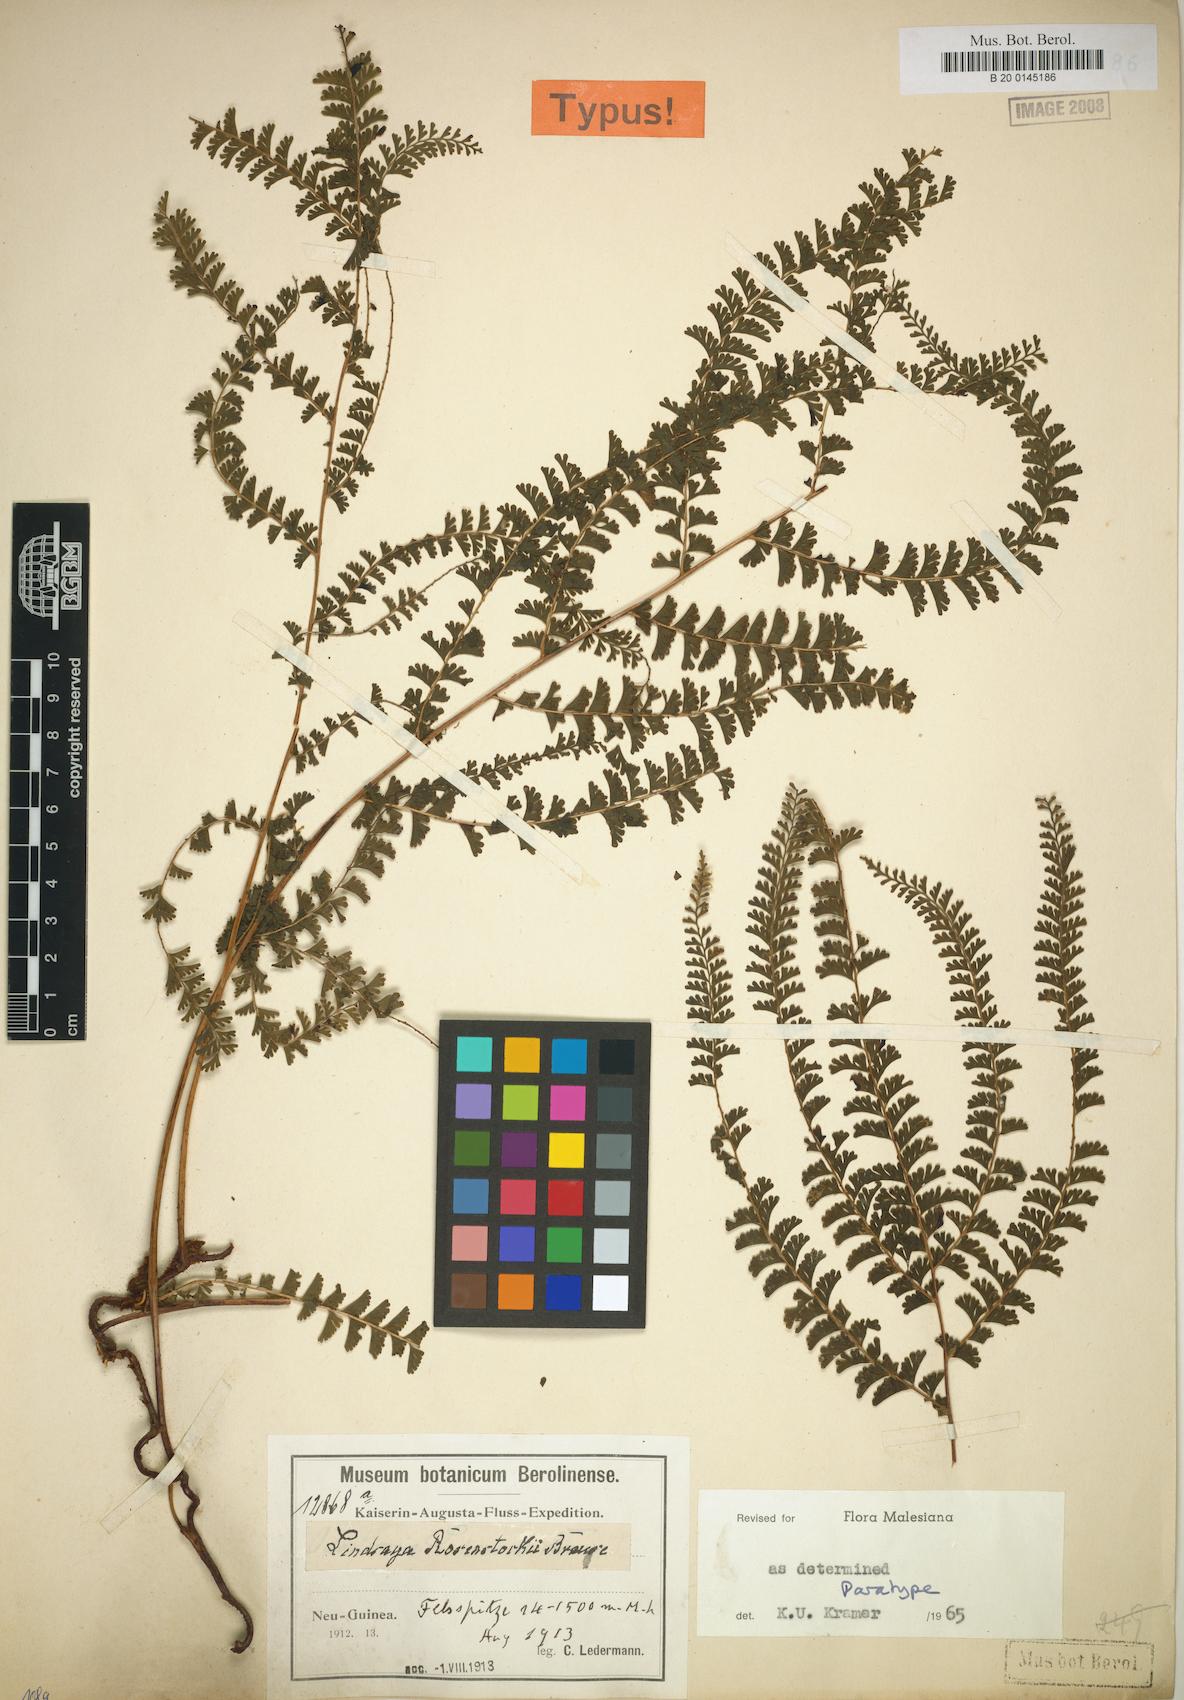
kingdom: Plantae
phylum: Tracheophyta
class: Polypodiopsida
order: Polypodiales
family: Lindsaeaceae
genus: Lindsaea
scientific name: Lindsaea rosenstockii
